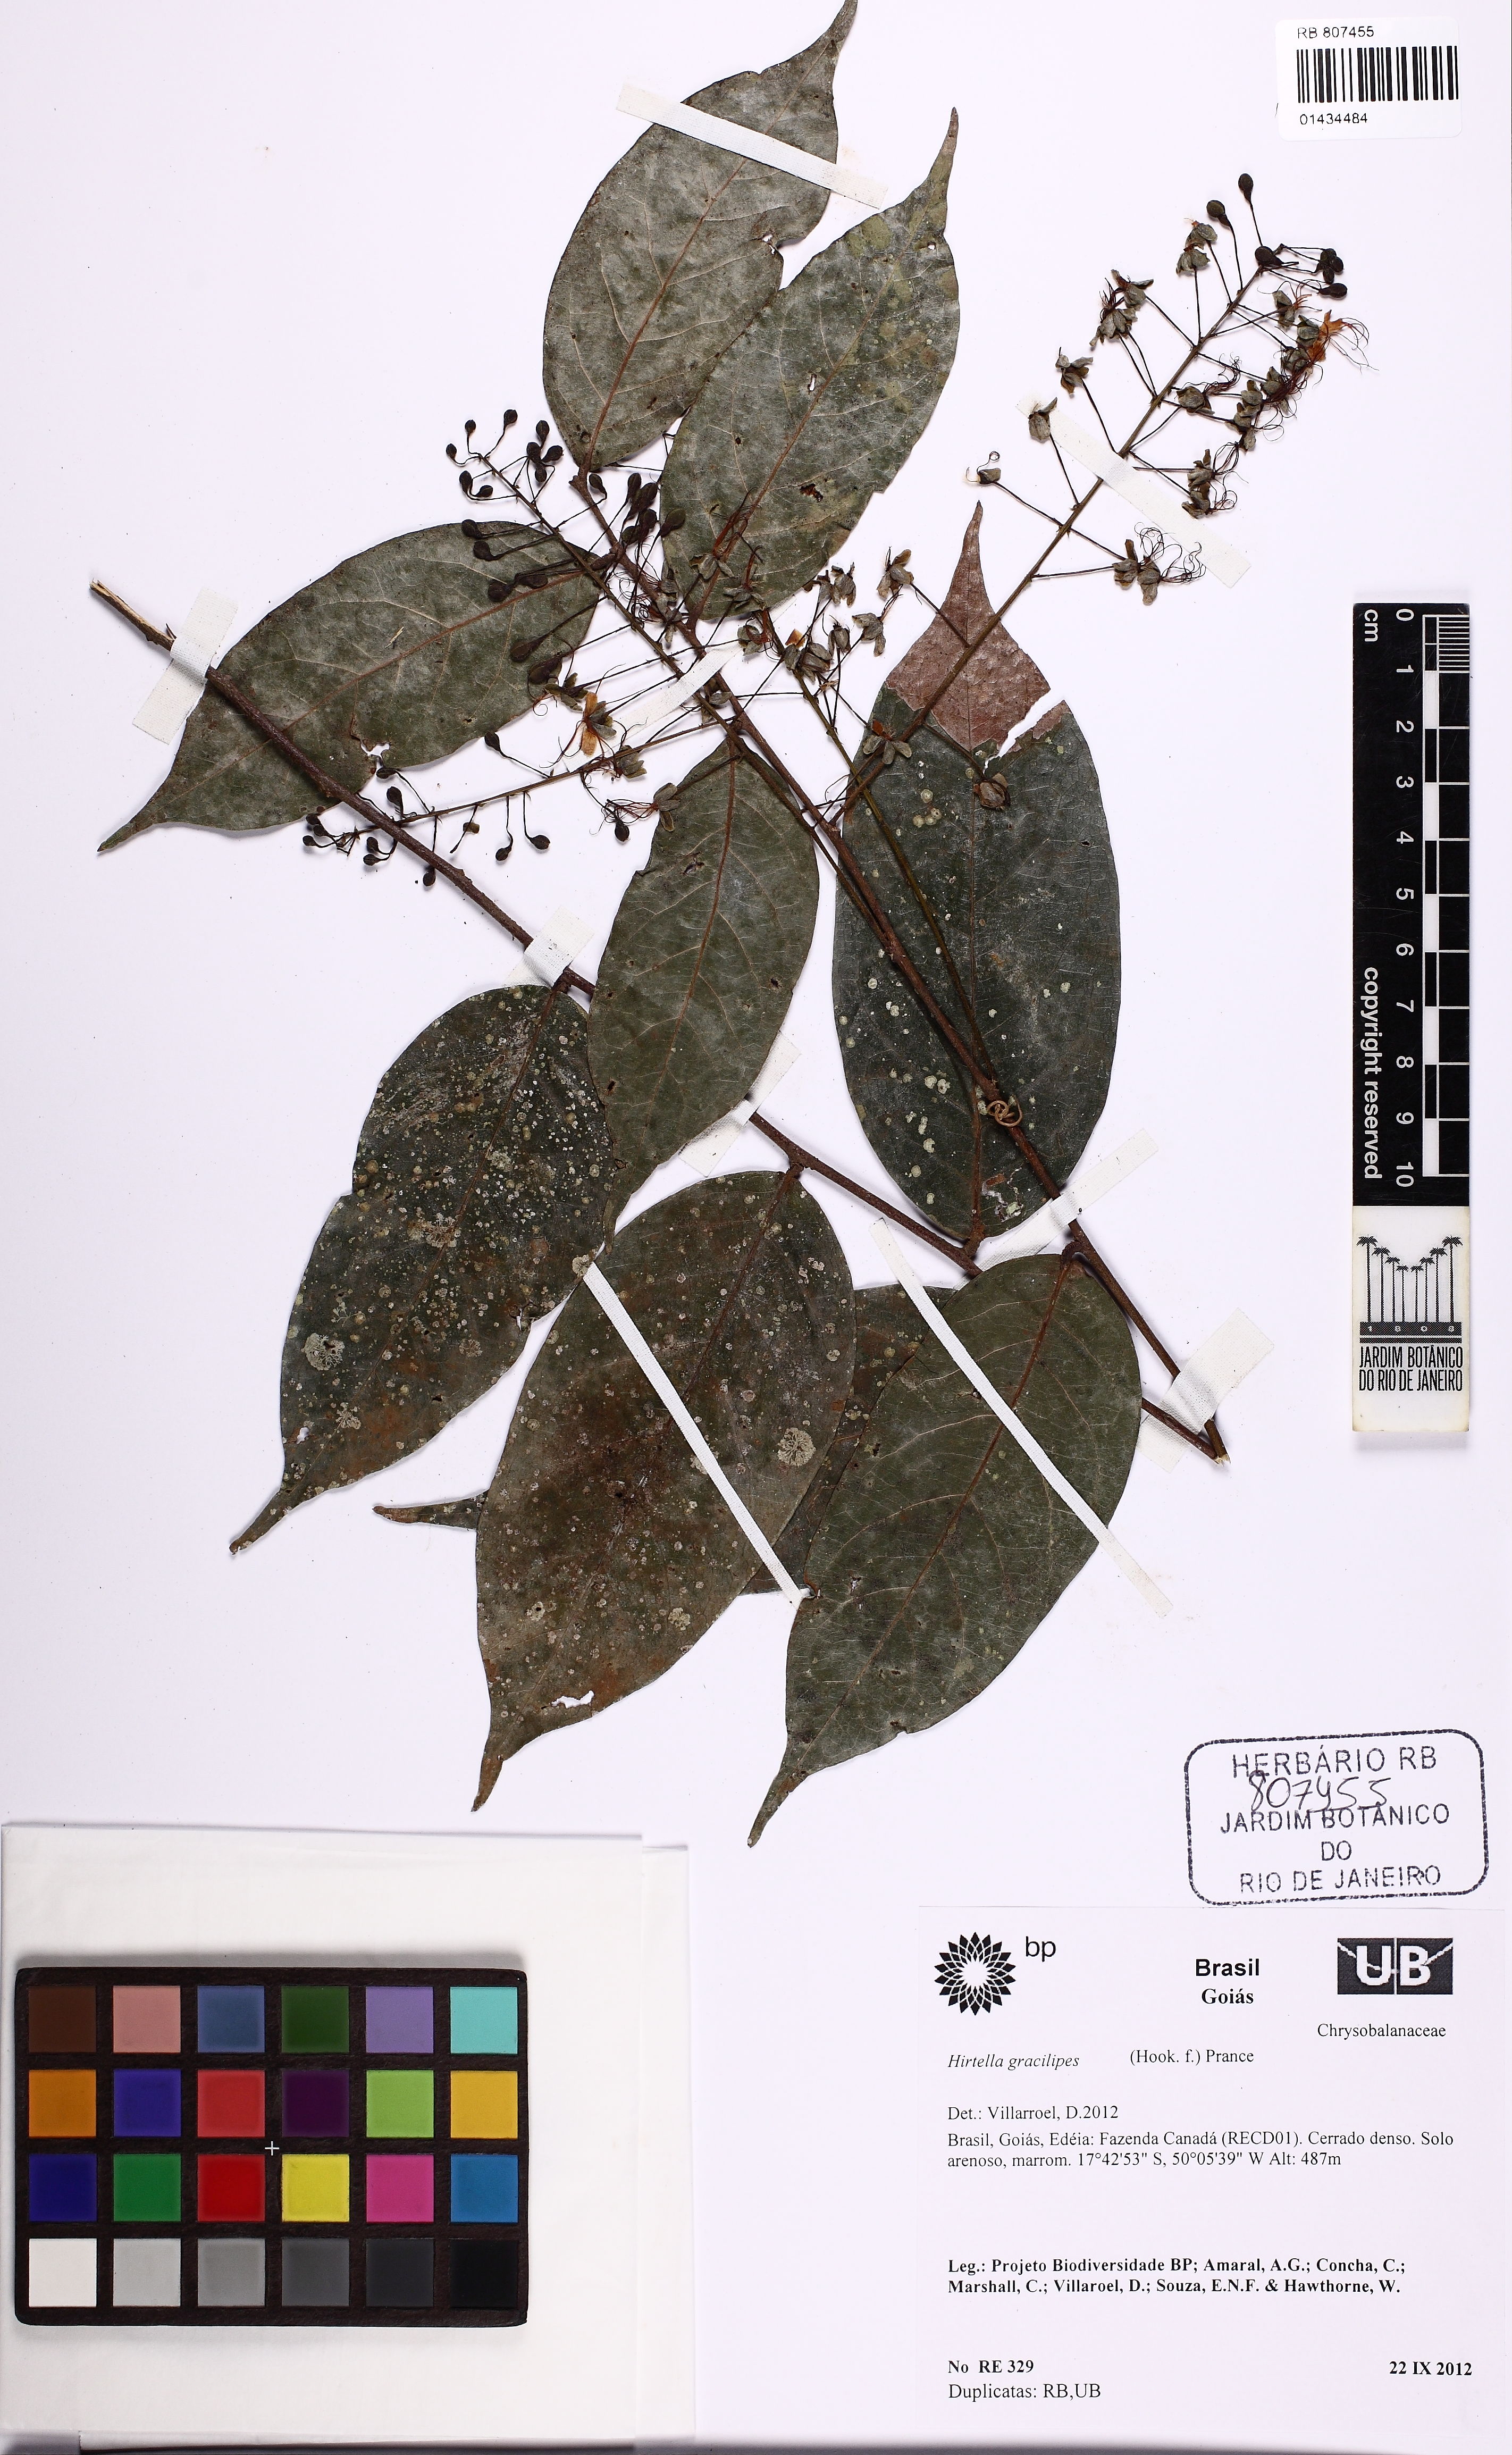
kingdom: Plantae
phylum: Tracheophyta
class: Magnoliopsida
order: Malpighiales
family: Chrysobalanaceae
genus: Hirtella
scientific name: Hirtella gracilipes
